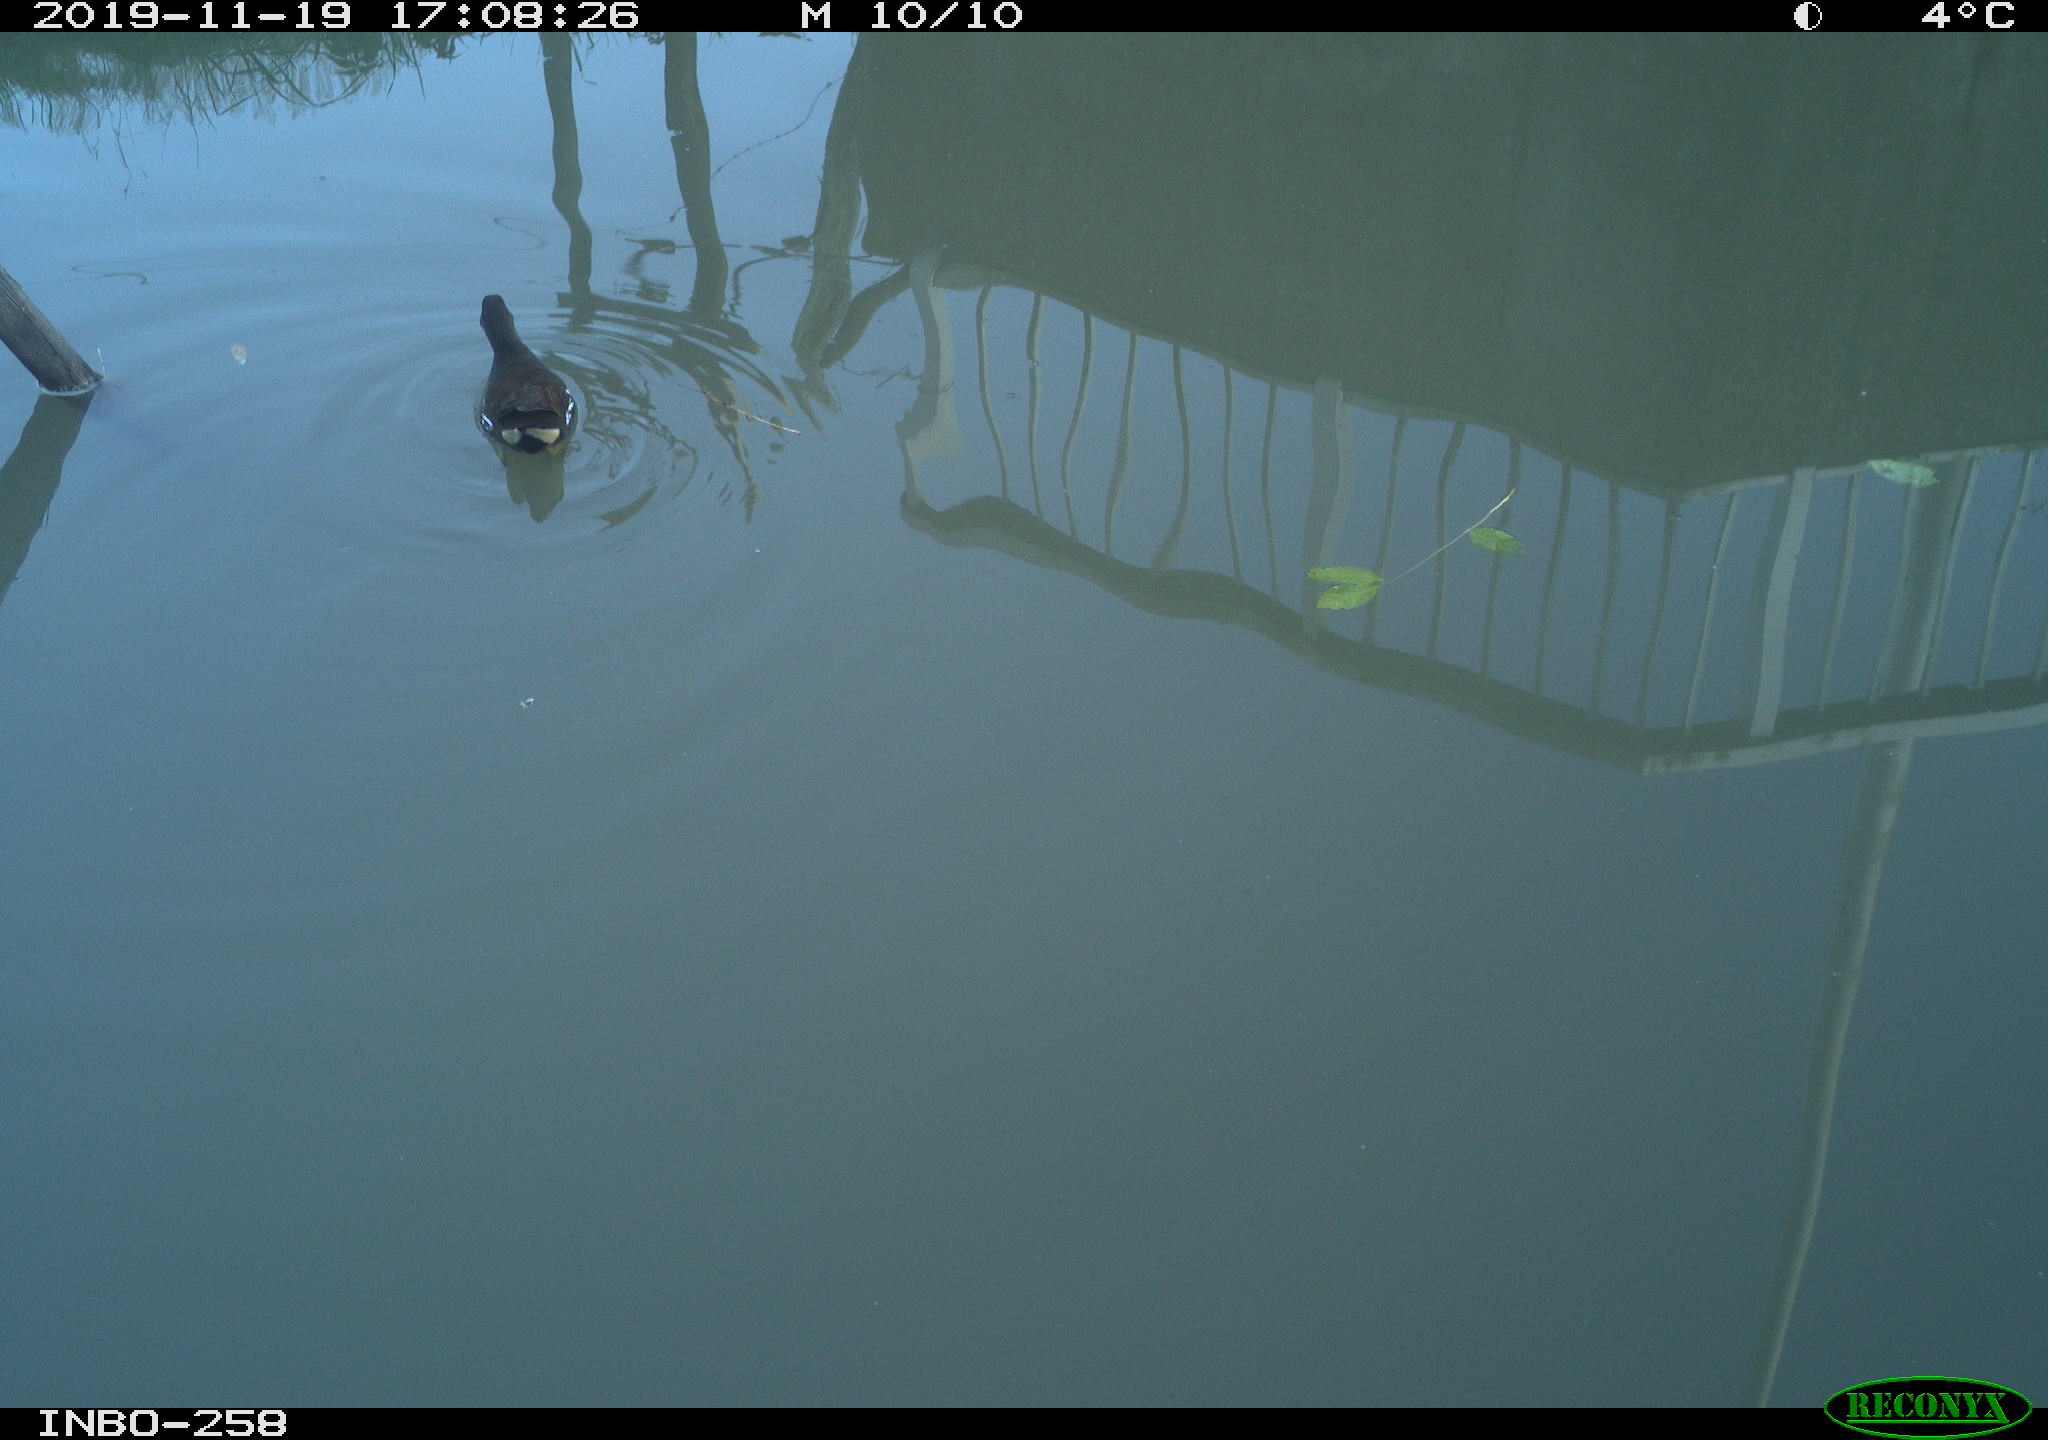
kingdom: Animalia
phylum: Chordata
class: Aves
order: Gruiformes
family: Rallidae
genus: Gallinula
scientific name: Gallinula chloropus
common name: Common moorhen
